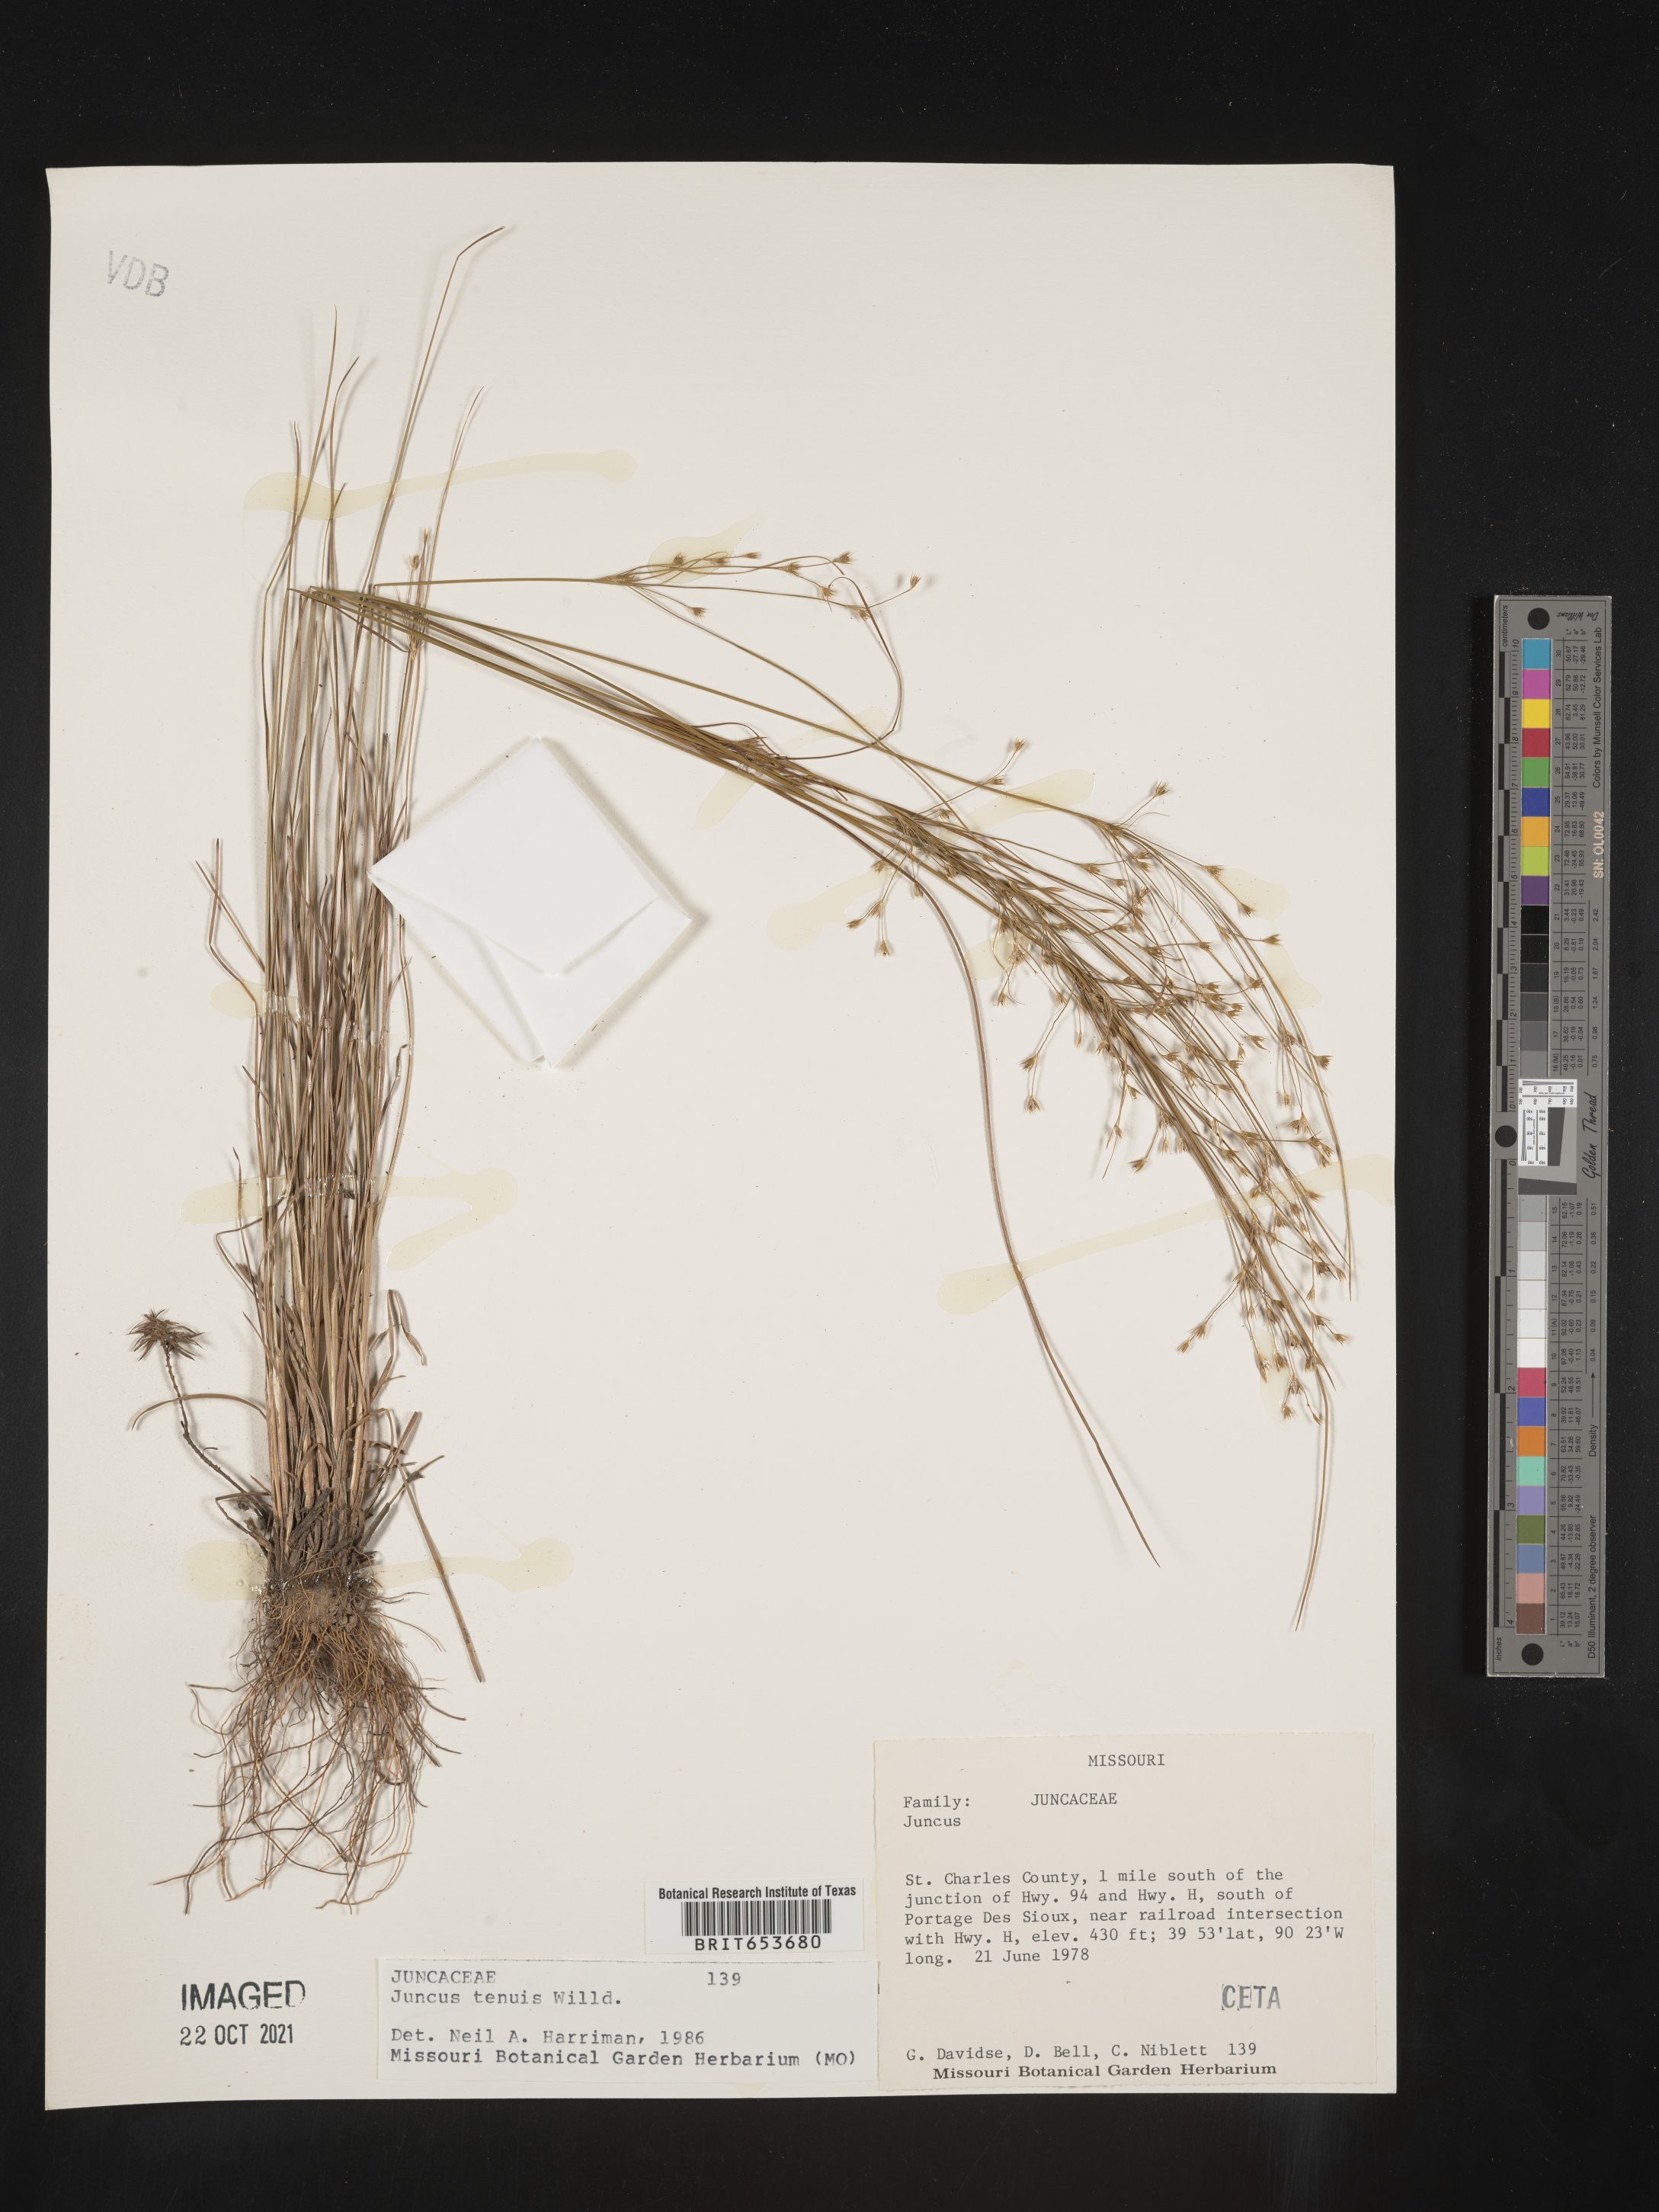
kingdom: Plantae
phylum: Tracheophyta
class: Liliopsida
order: Poales
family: Juncaceae
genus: Juncus
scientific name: Juncus tenuis
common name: Slender rush
